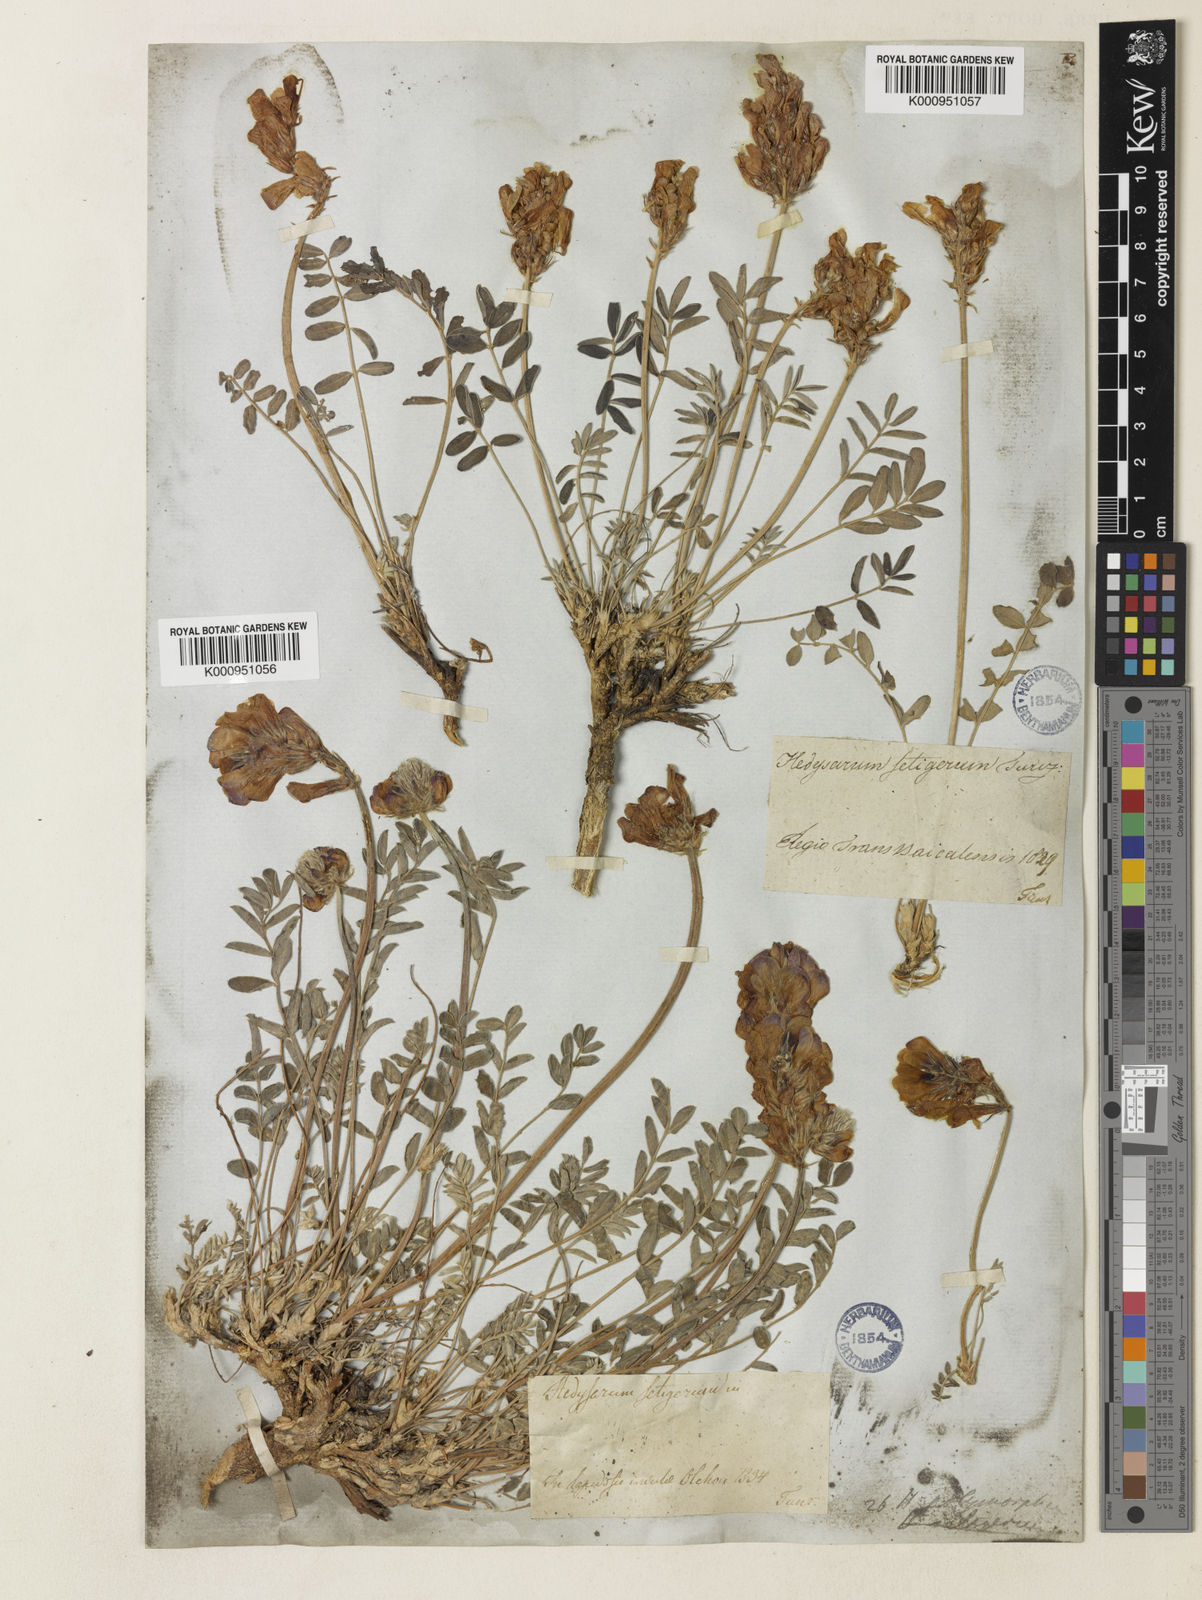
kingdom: Plantae
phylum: Tracheophyta
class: Magnoliopsida
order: Fabales
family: Fabaceae
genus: Hedysarum
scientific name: Hedysarum gmelinii
